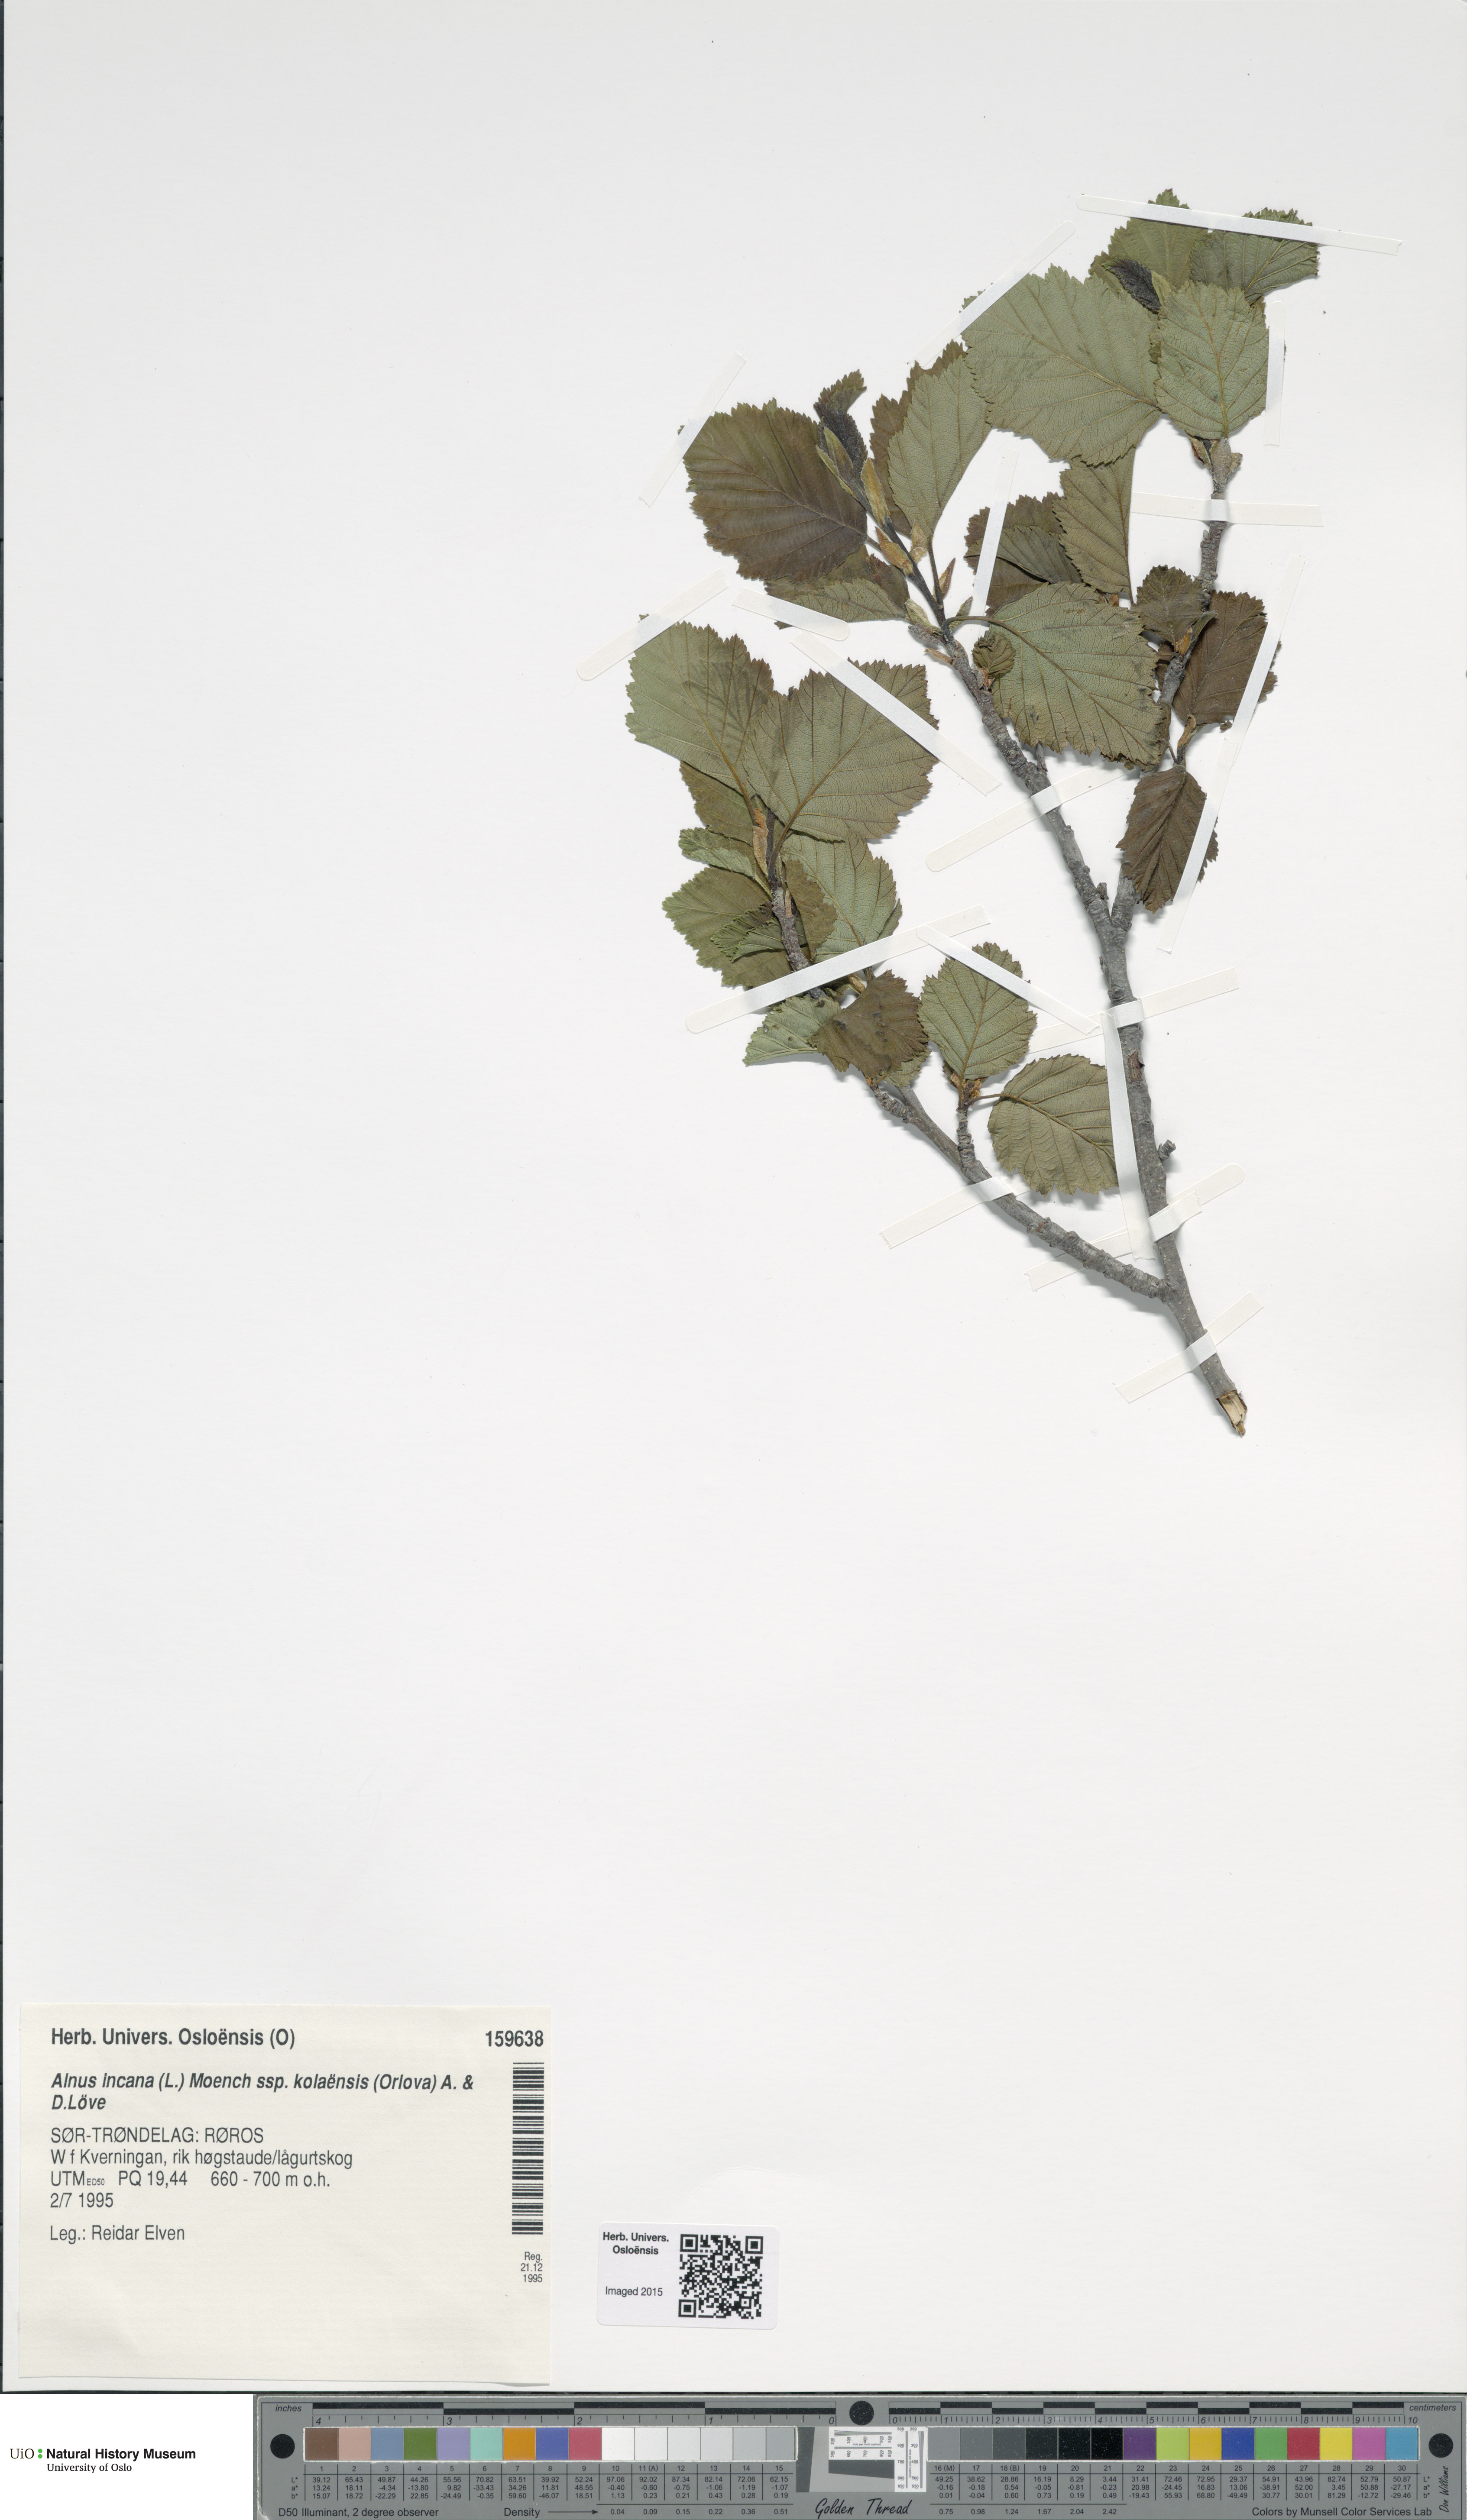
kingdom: Plantae
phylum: Tracheophyta
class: Magnoliopsida
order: Fagales
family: Betulaceae
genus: Alnus
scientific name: Alnus incana
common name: Grey alder
